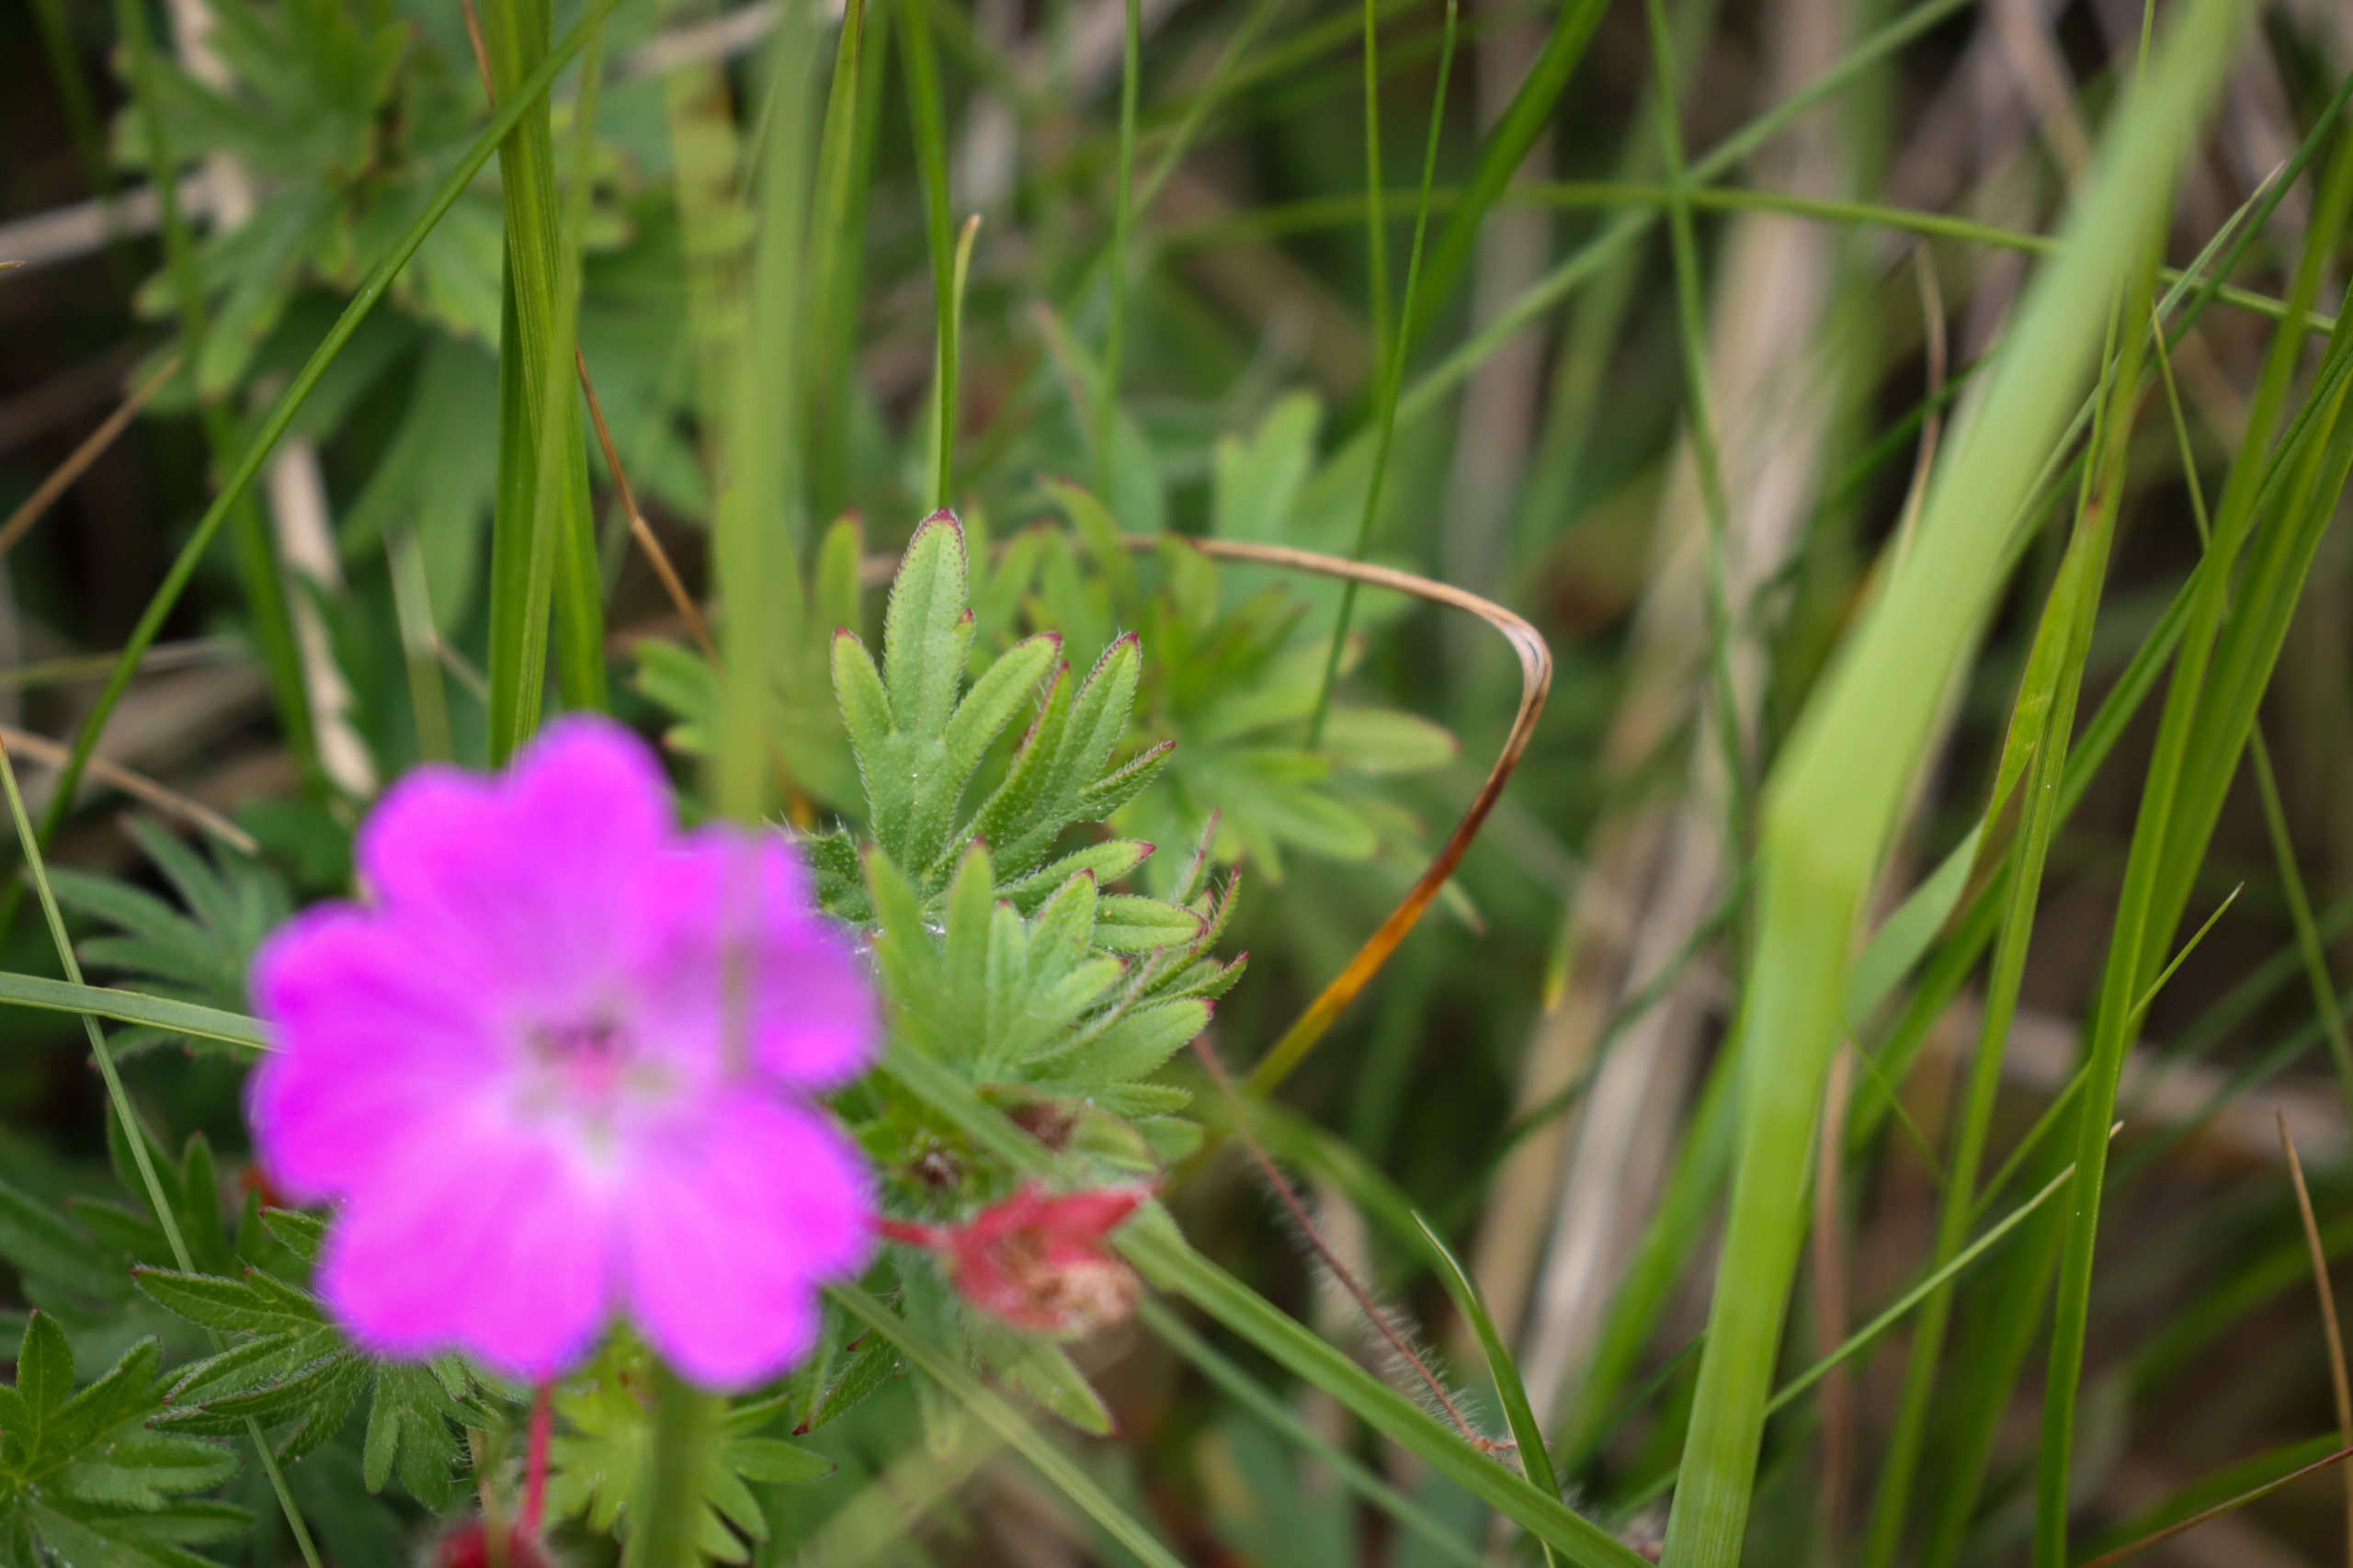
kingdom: Plantae
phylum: Tracheophyta
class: Magnoliopsida
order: Geraniales
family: Geraniaceae
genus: Geranium
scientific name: Geranium sanguineum
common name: Blodrød storkenæb
